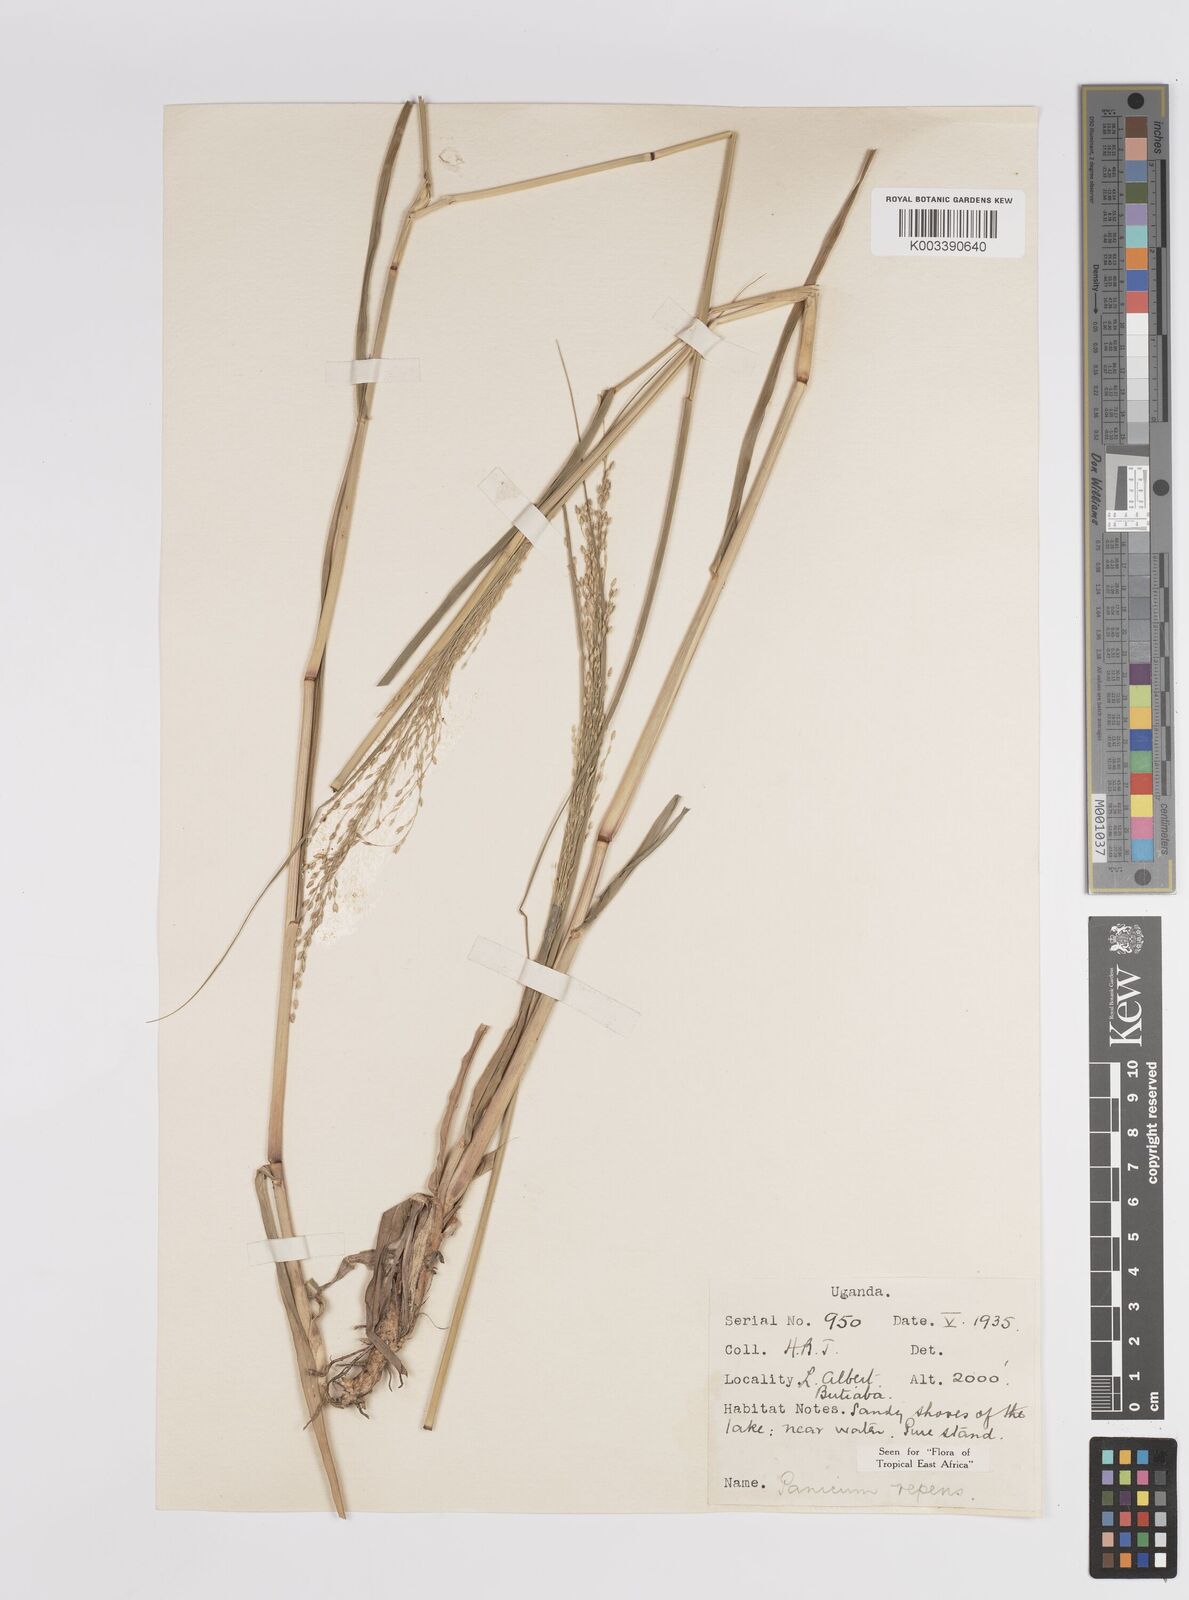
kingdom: Plantae
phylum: Tracheophyta
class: Liliopsida
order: Poales
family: Poaceae
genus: Panicum
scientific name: Panicum repens
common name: Torpedo grass
